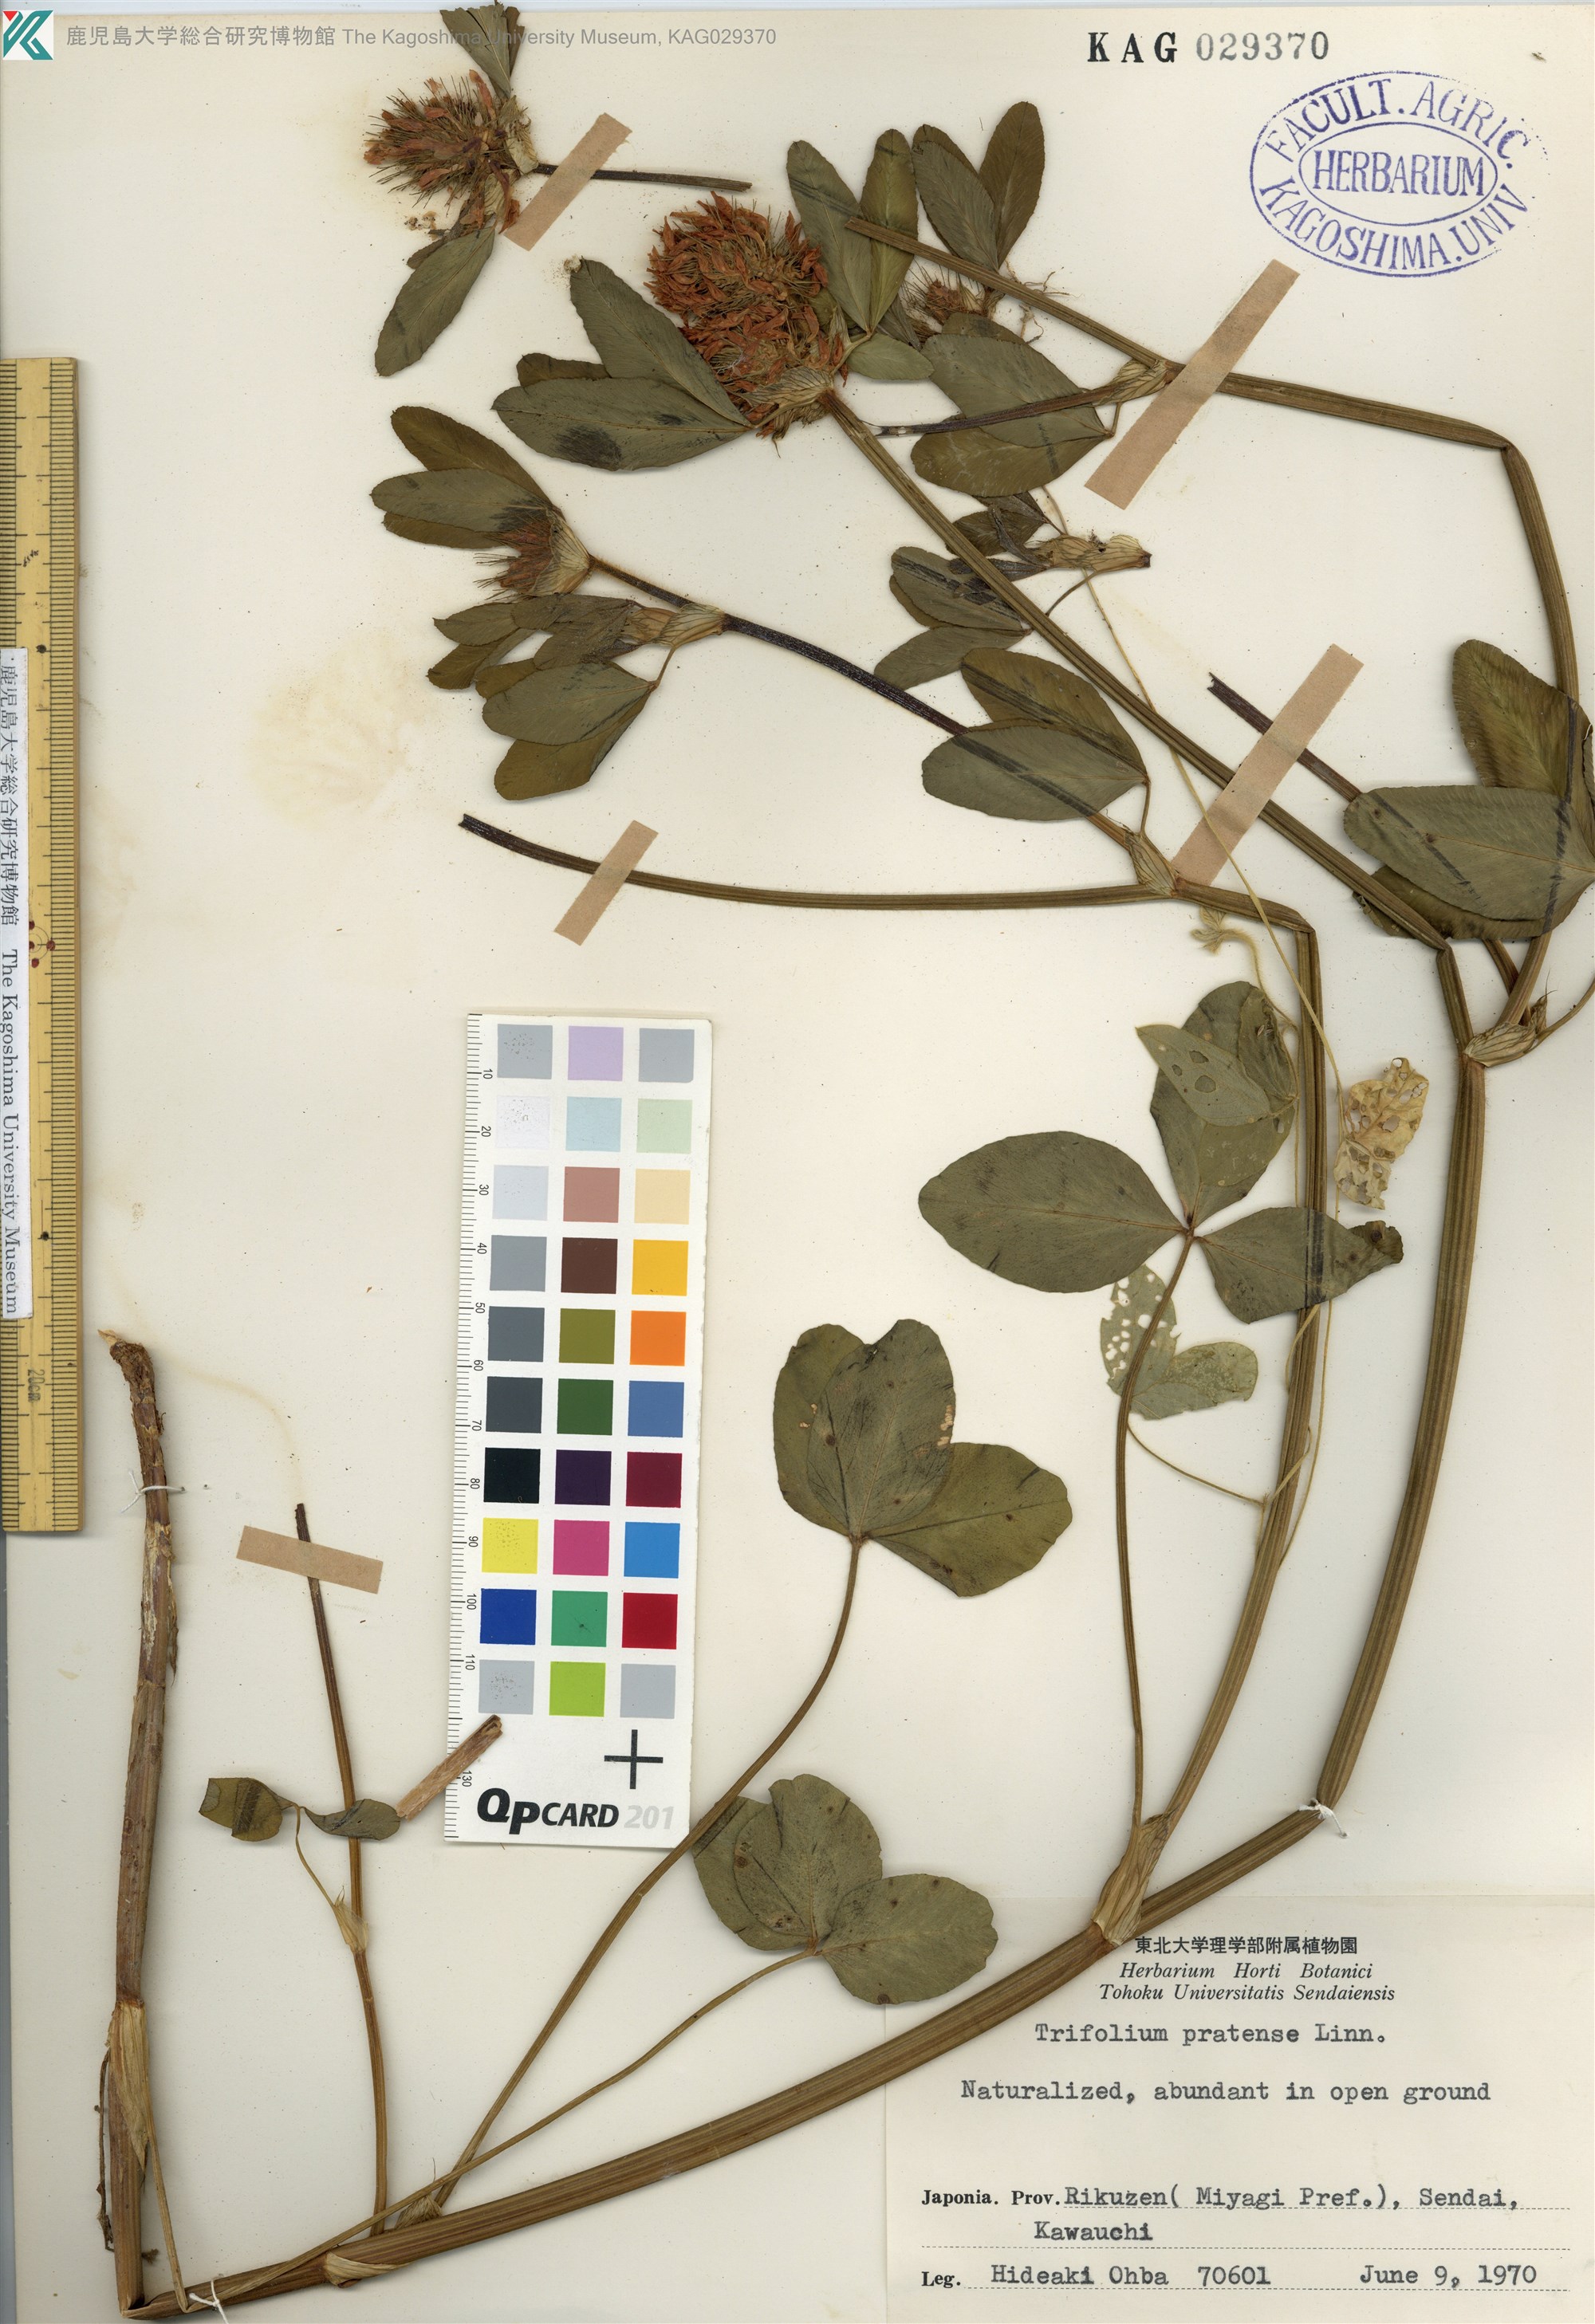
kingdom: Plantae
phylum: Tracheophyta
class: Magnoliopsida
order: Fabales
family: Fabaceae
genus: Trifolium
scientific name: Trifolium pratense
